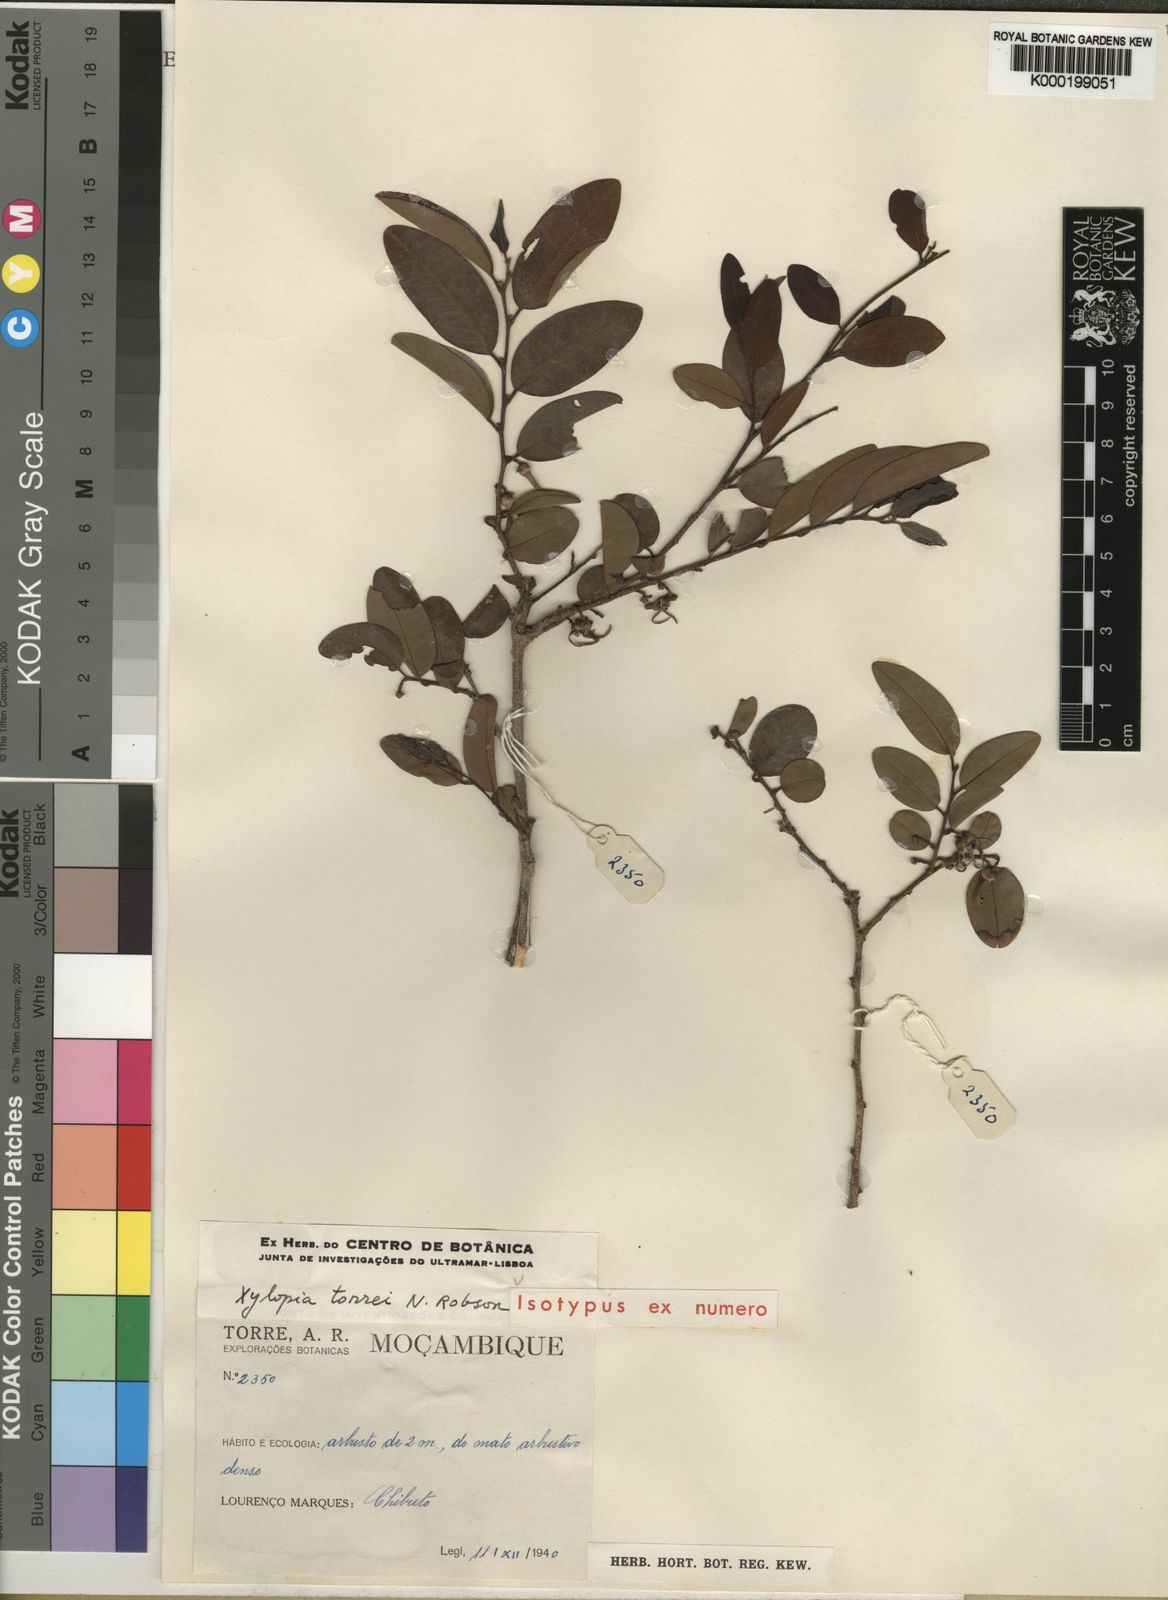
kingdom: Plantae
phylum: Tracheophyta
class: Magnoliopsida
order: Magnoliales
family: Annonaceae
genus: Xylopia
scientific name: Xylopia torrei
